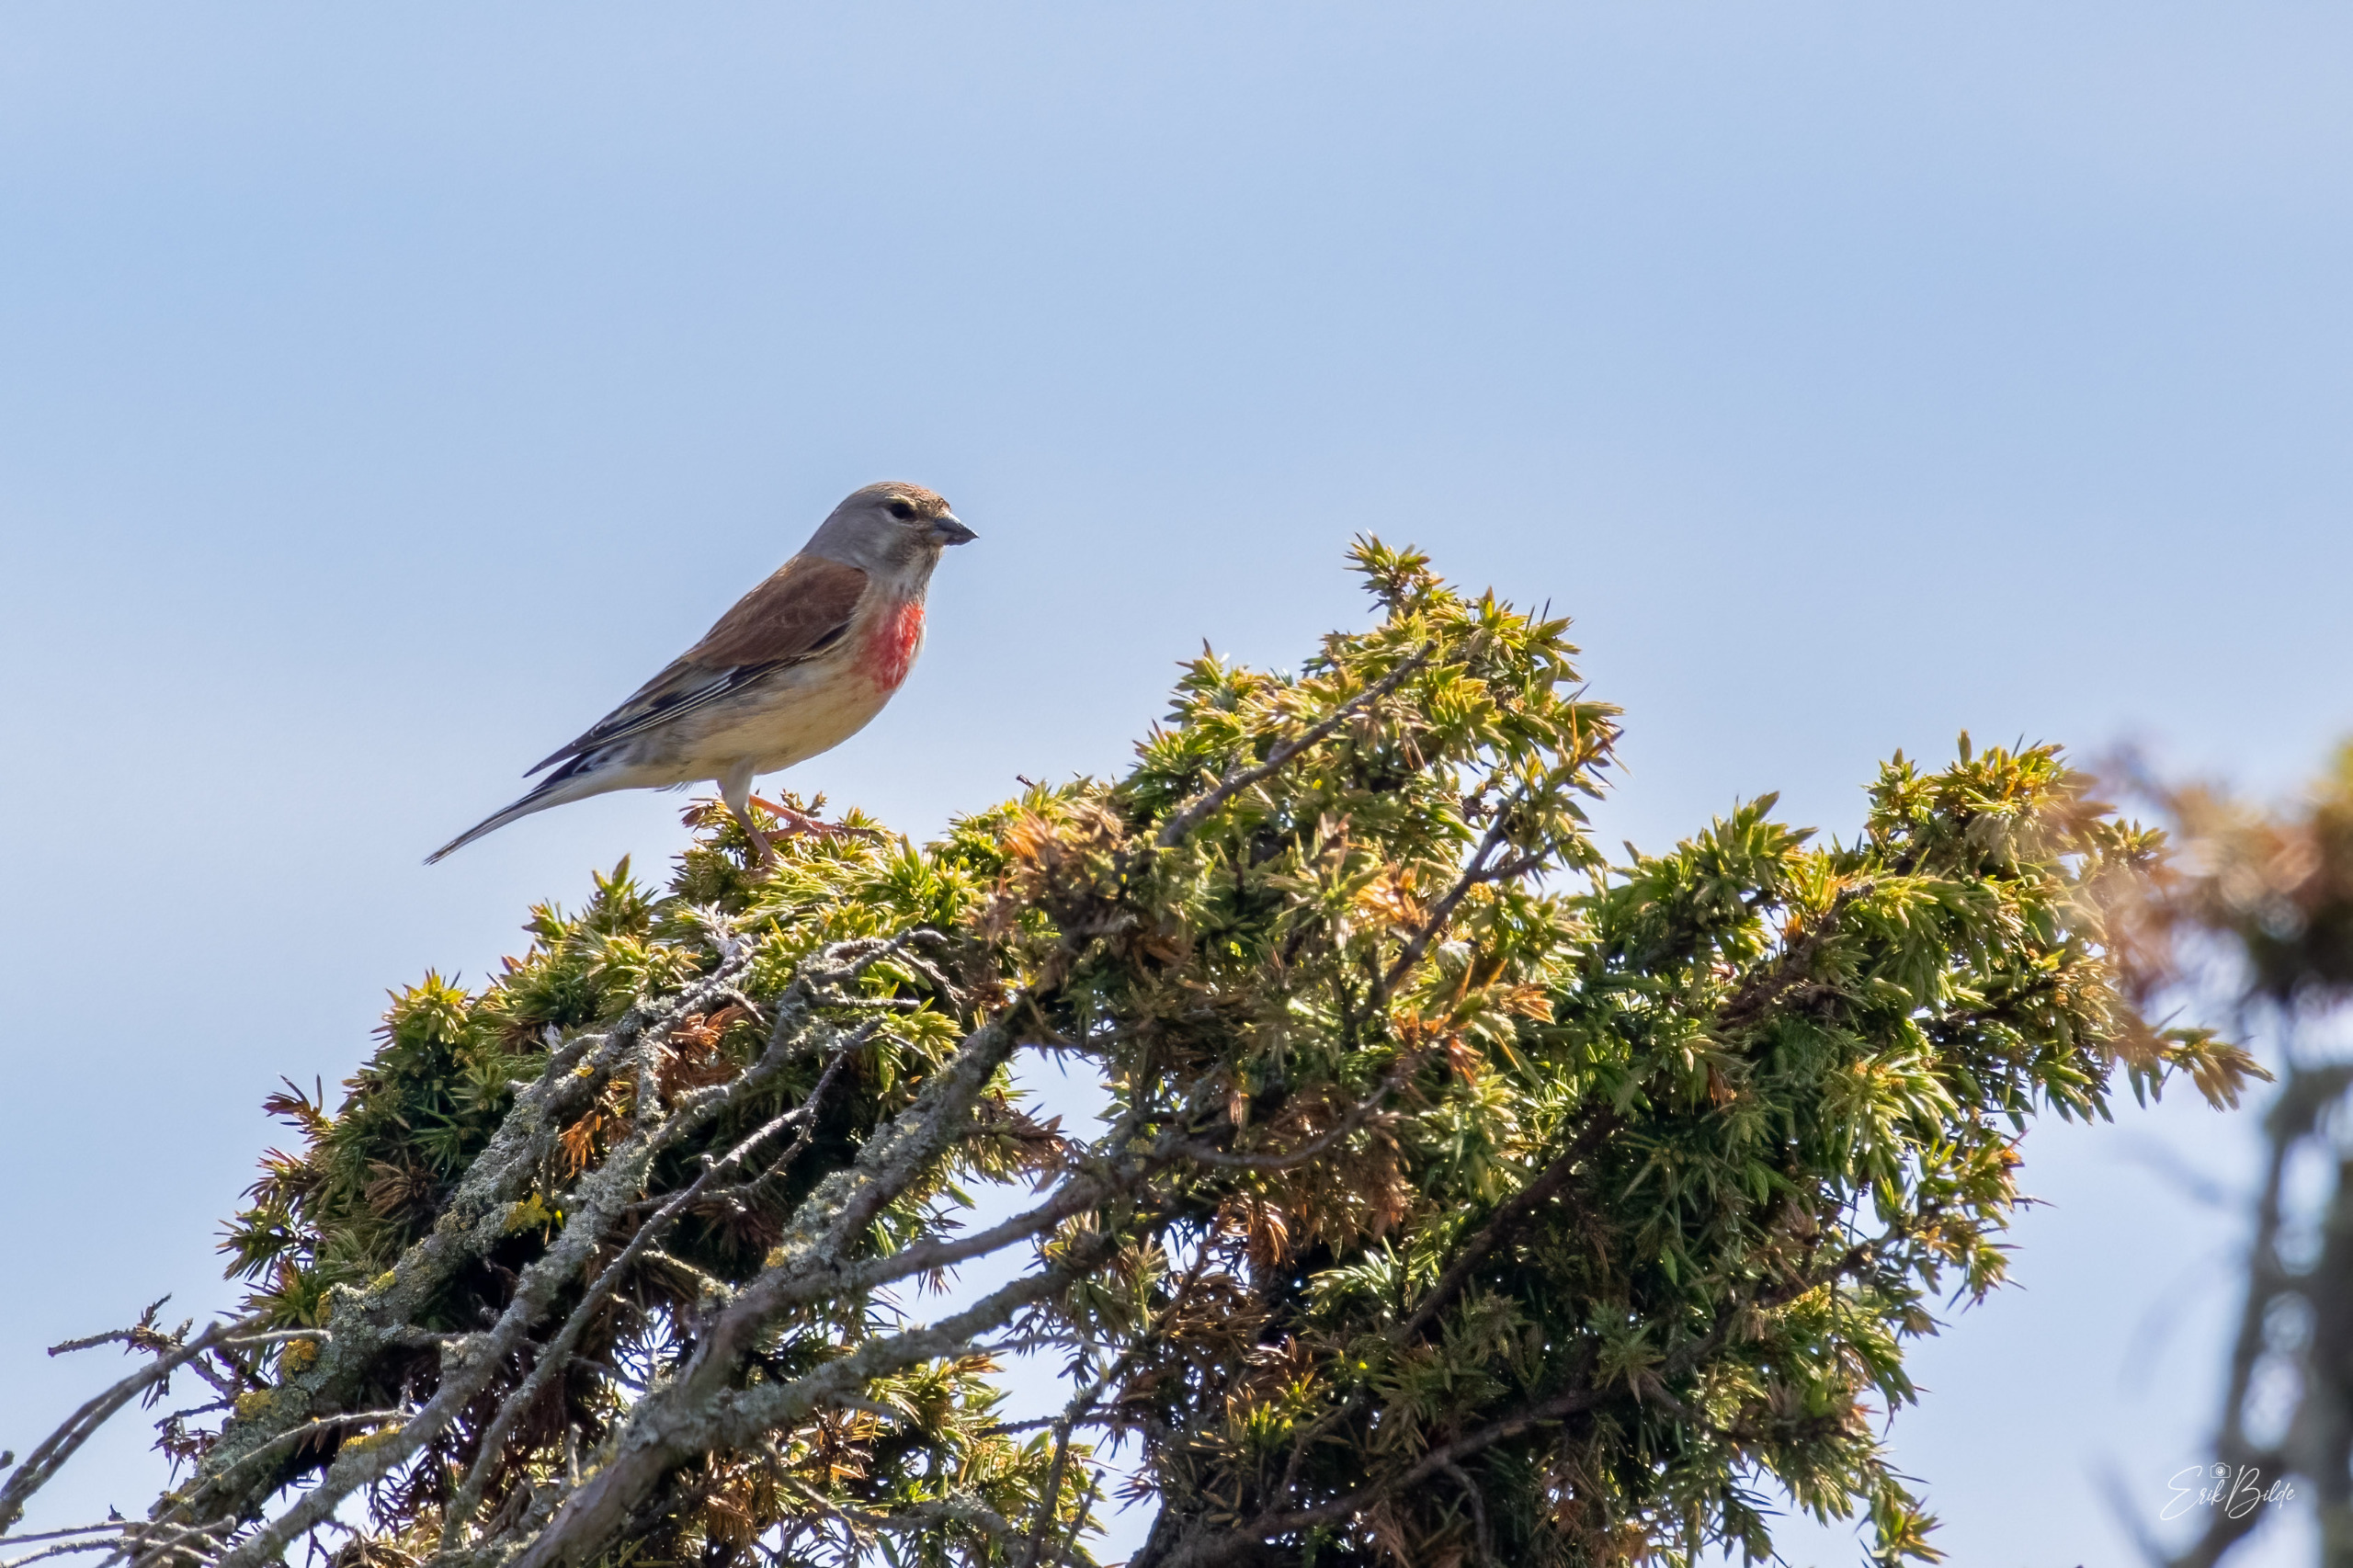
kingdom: Animalia
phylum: Chordata
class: Aves
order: Passeriformes
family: Fringillidae
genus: Linaria
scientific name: Linaria cannabina
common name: Tornirisk
